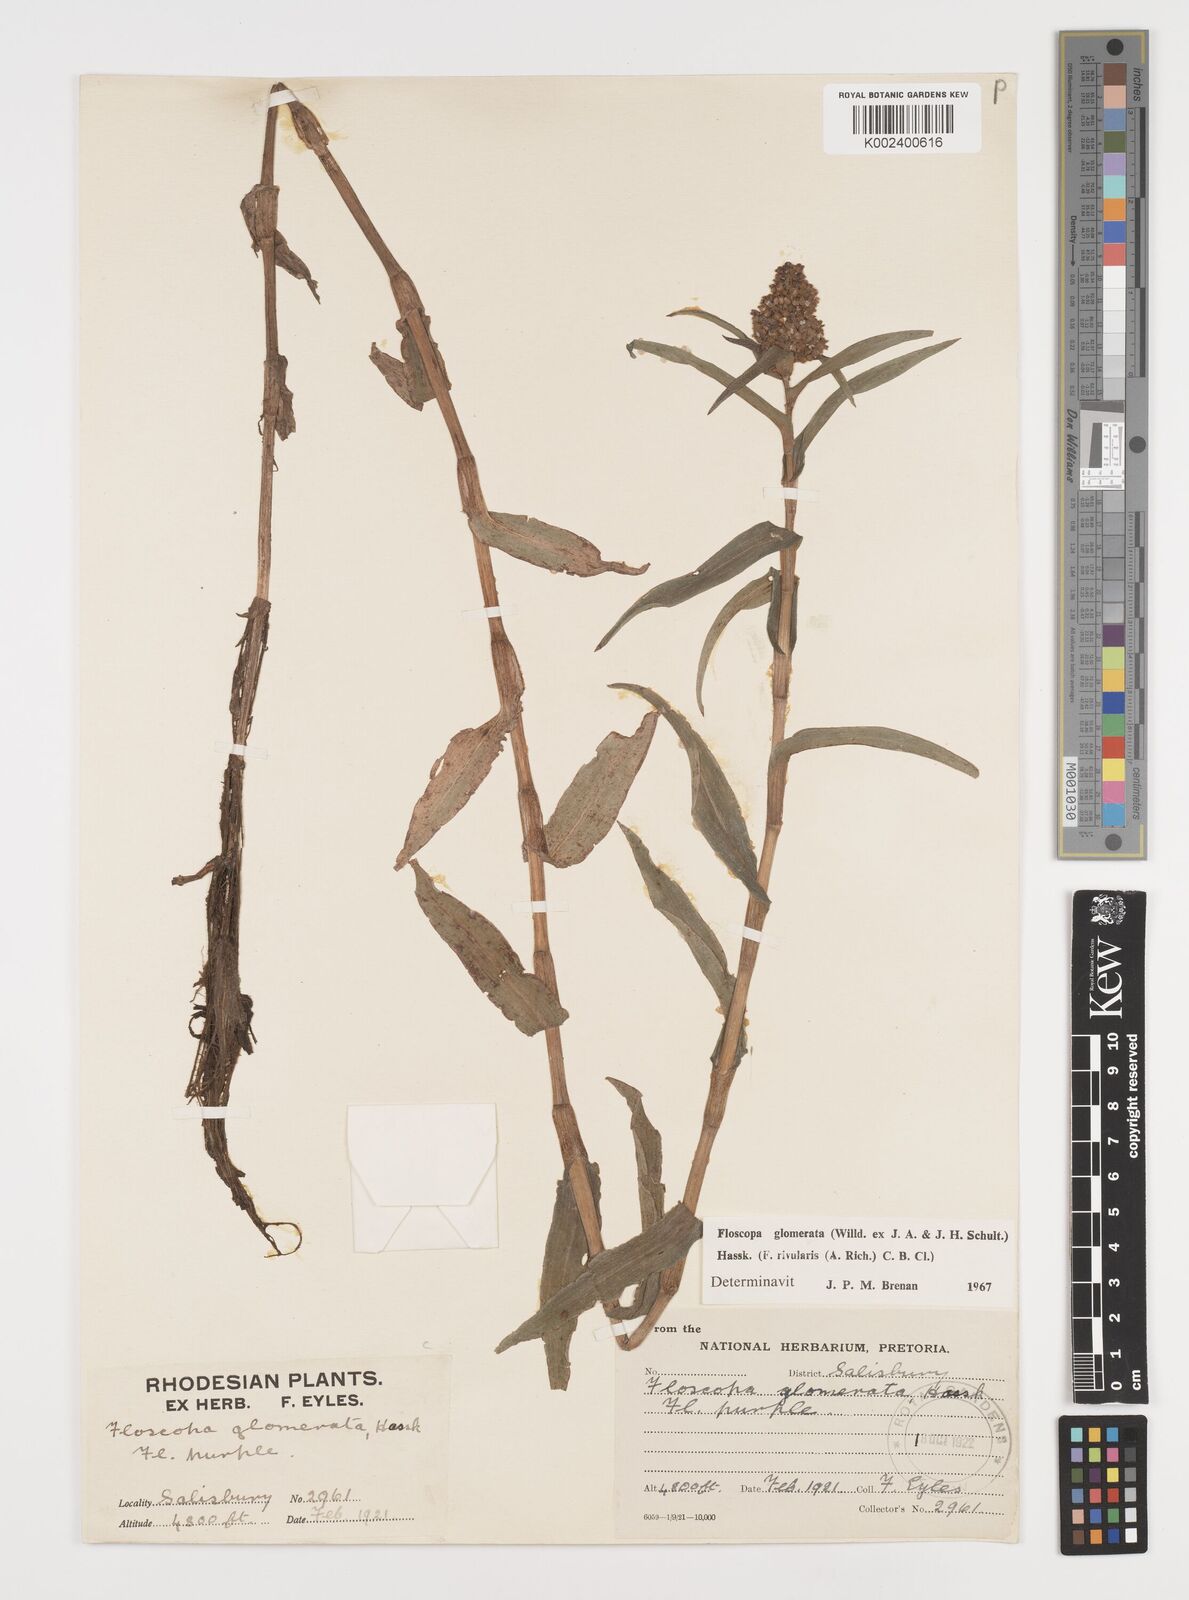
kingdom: Plantae
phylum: Tracheophyta
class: Liliopsida
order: Commelinales
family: Commelinaceae
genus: Floscopa
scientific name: Floscopa glomerata
